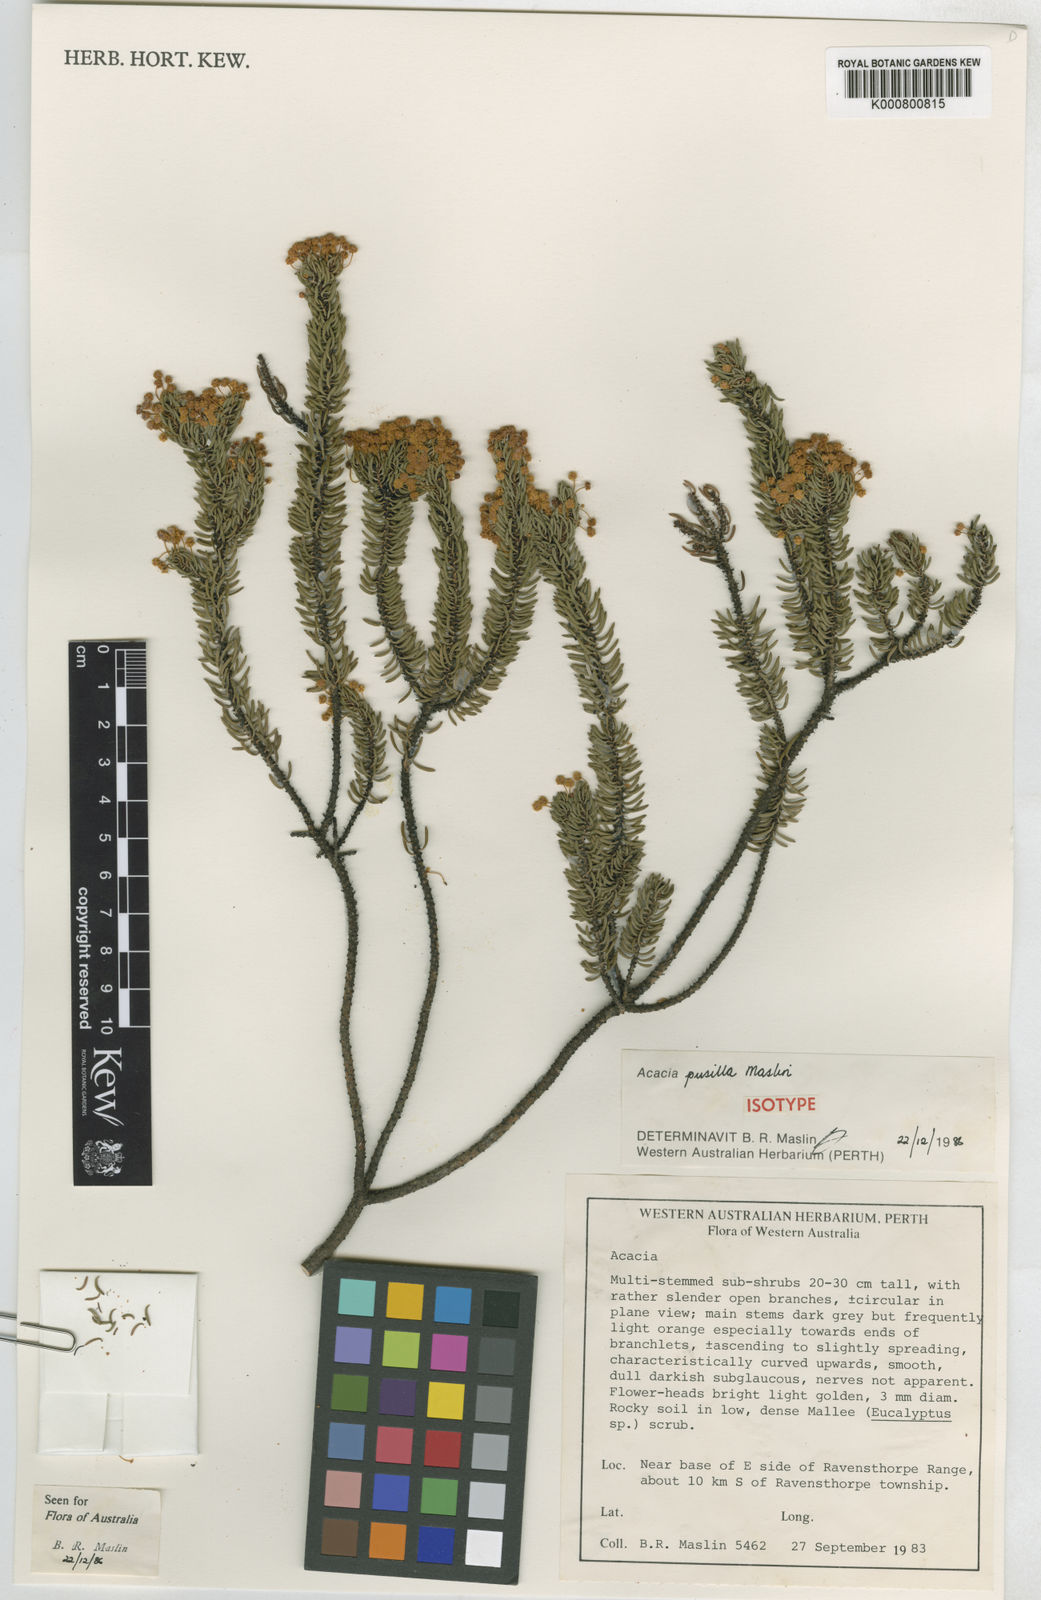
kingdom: Plantae
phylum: Tracheophyta
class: Magnoliopsida
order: Fabales
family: Fabaceae
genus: Acacia
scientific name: Acacia pusilla
